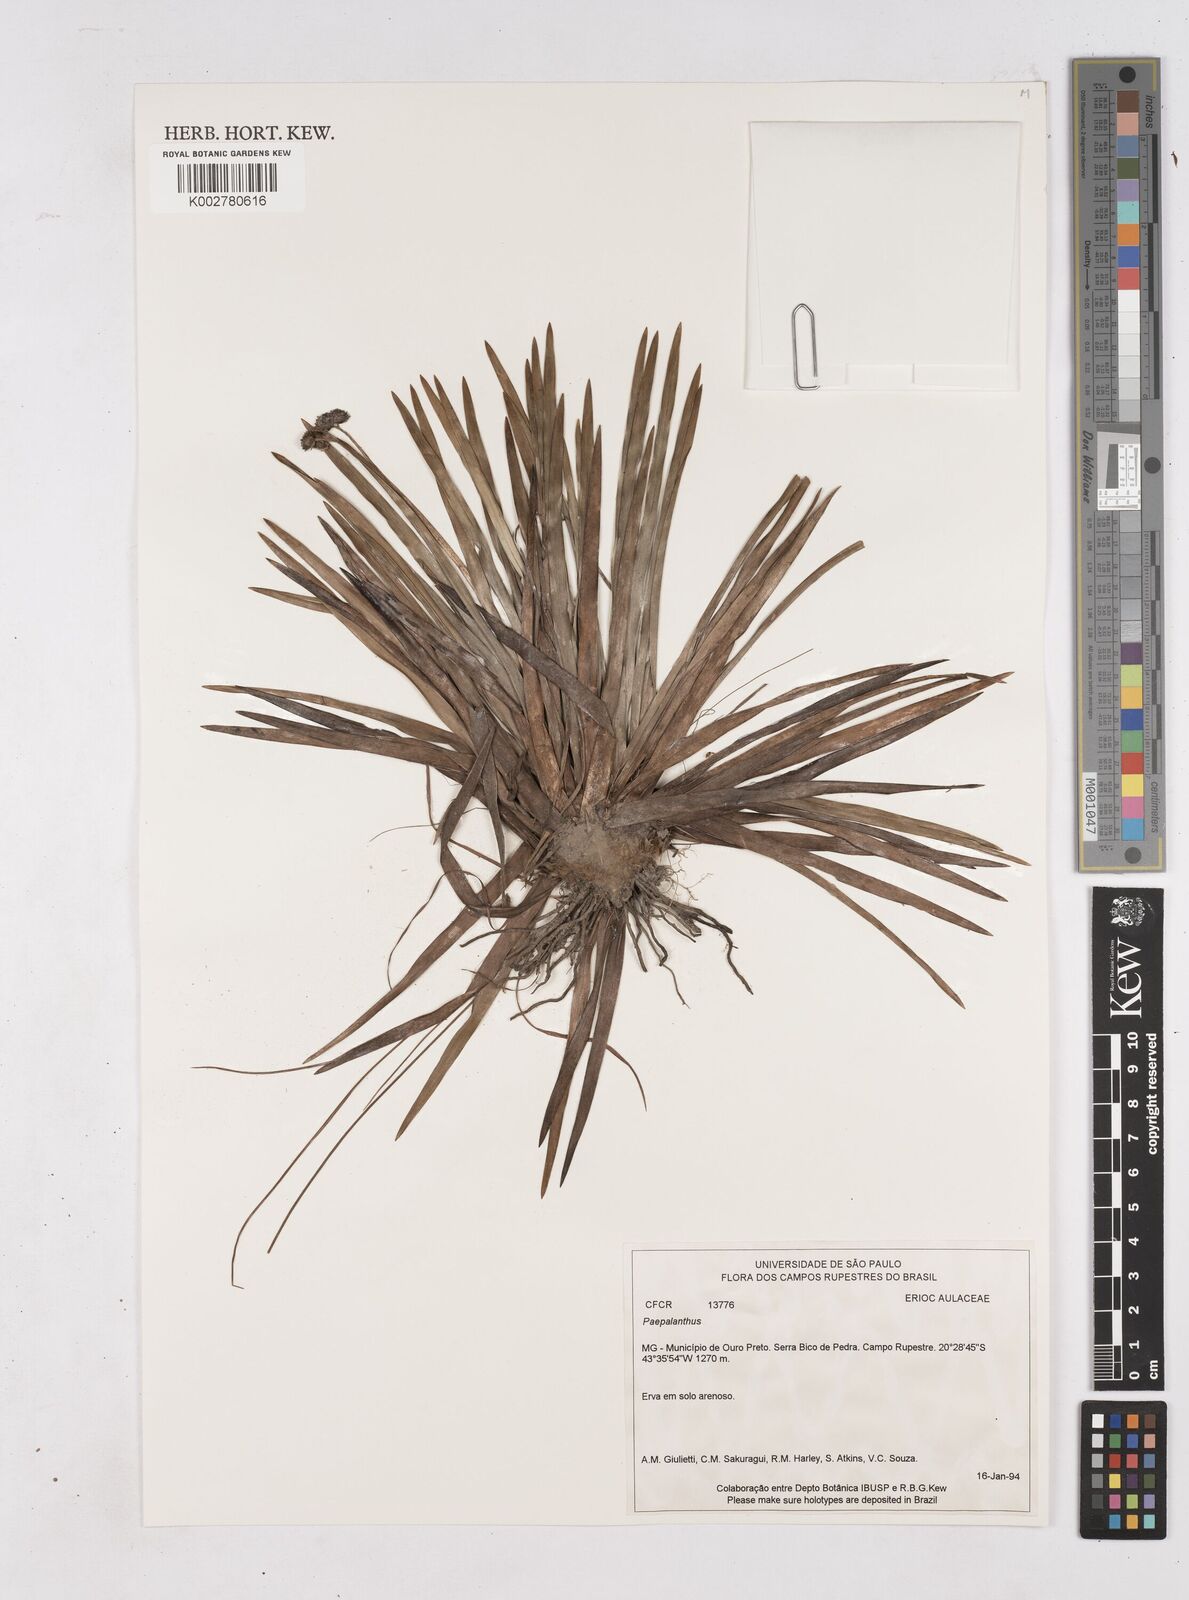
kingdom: Plantae
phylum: Tracheophyta
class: Liliopsida
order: Poales
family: Eriocaulaceae
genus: Paepalanthus
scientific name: Paepalanthus
